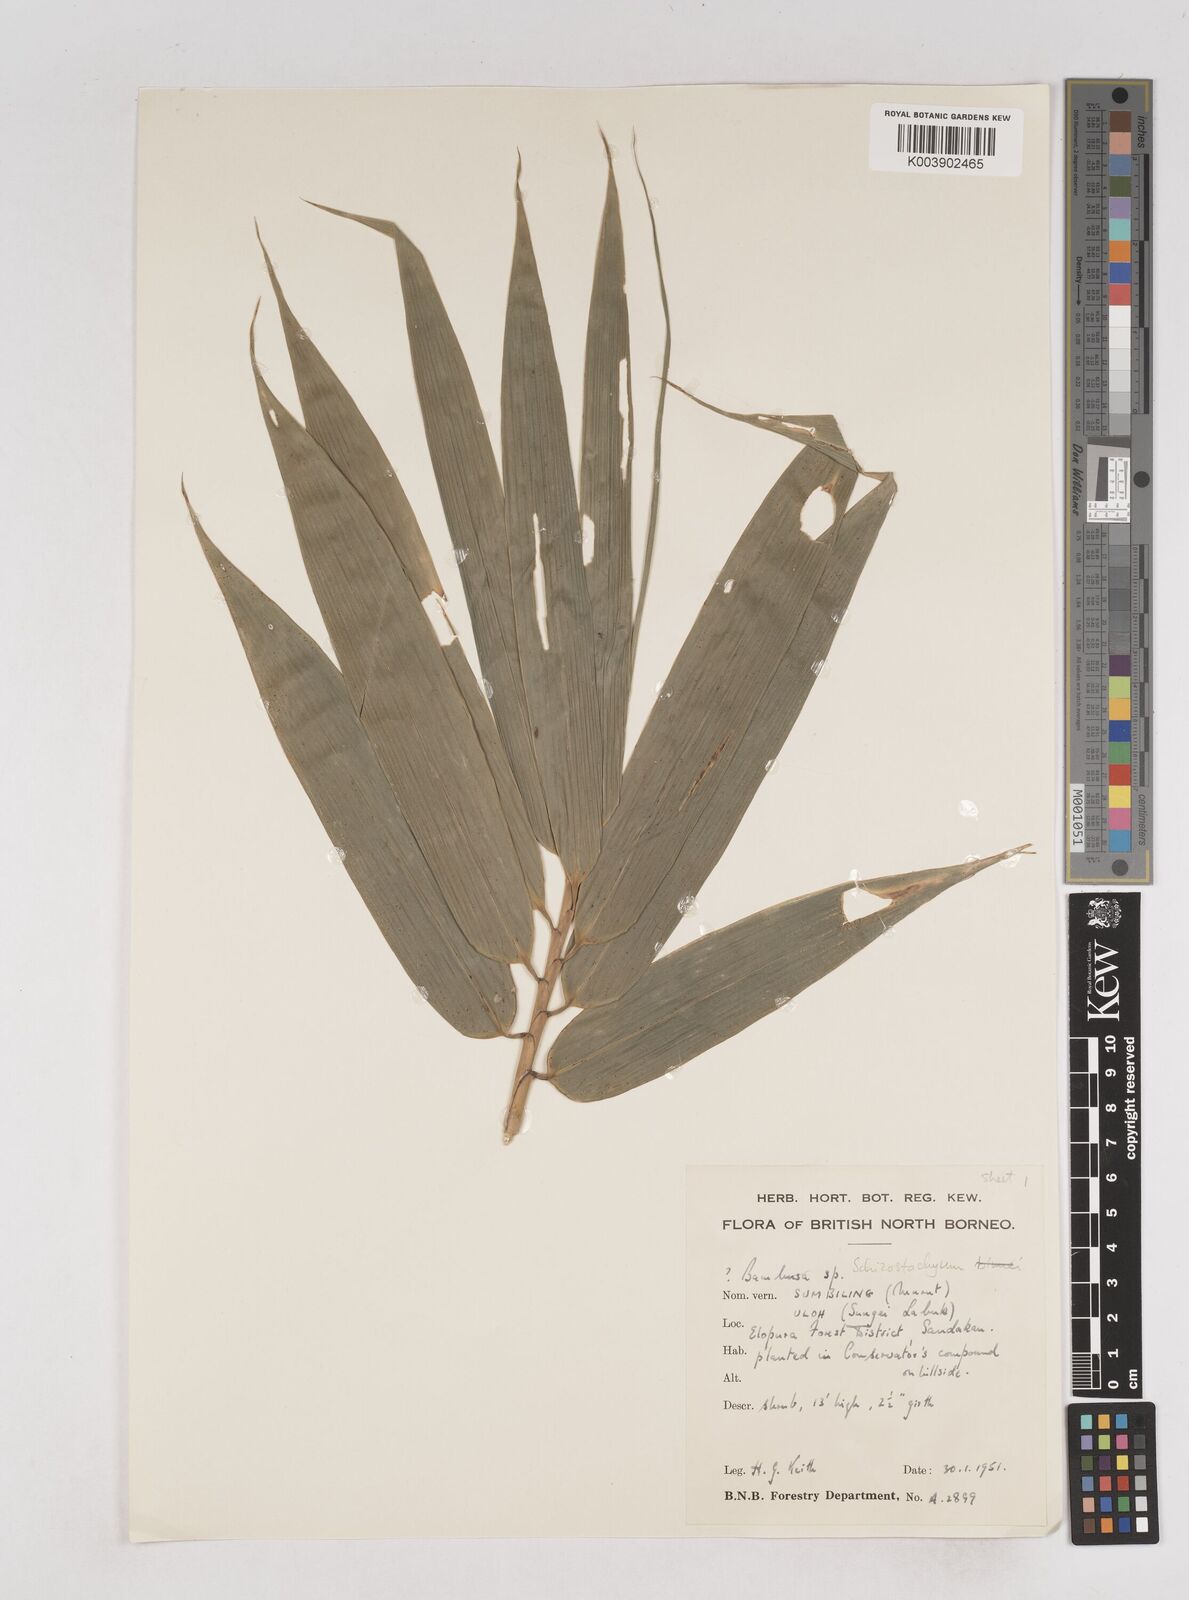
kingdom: Plantae
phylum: Tracheophyta
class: Liliopsida
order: Poales
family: Poaceae
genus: Schizostachyum
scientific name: Schizostachyum
